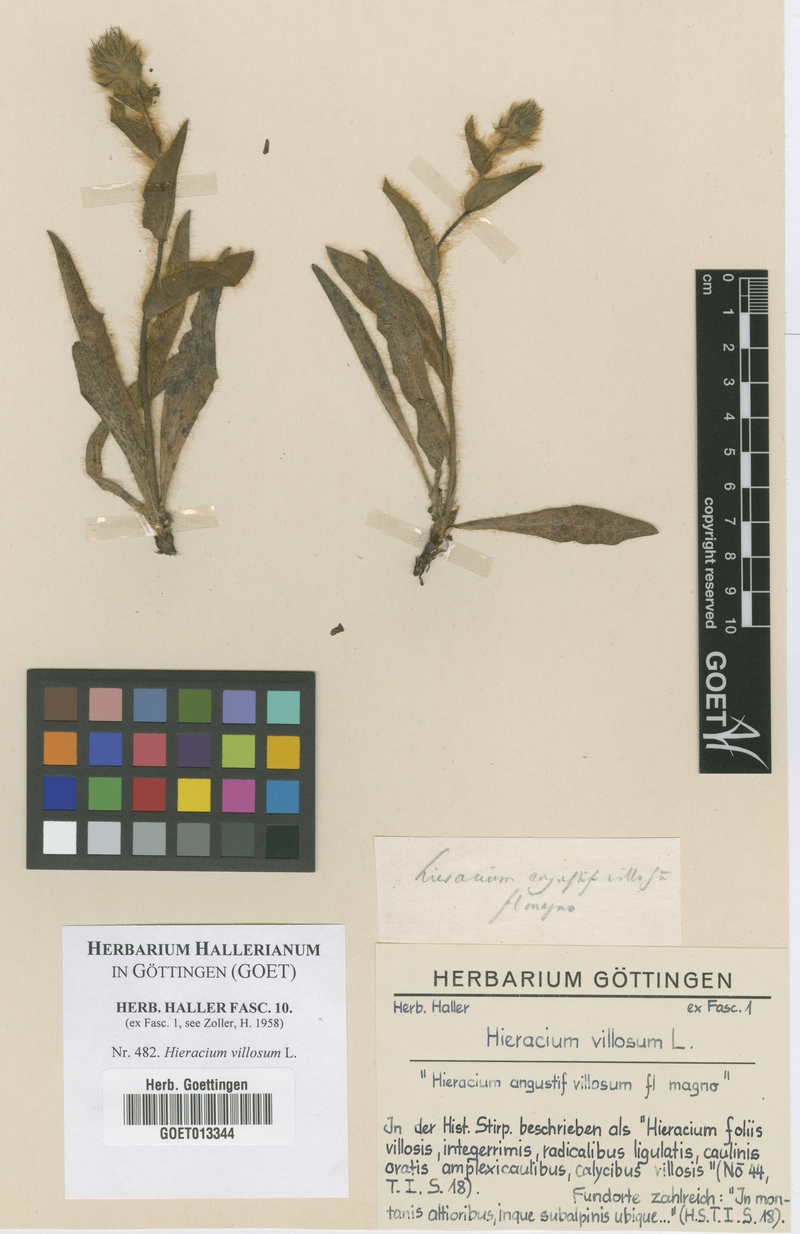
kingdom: Plantae
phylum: Tracheophyta
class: Magnoliopsida
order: Asterales
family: Asteraceae
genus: Hieracium
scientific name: Hieracium villosum
